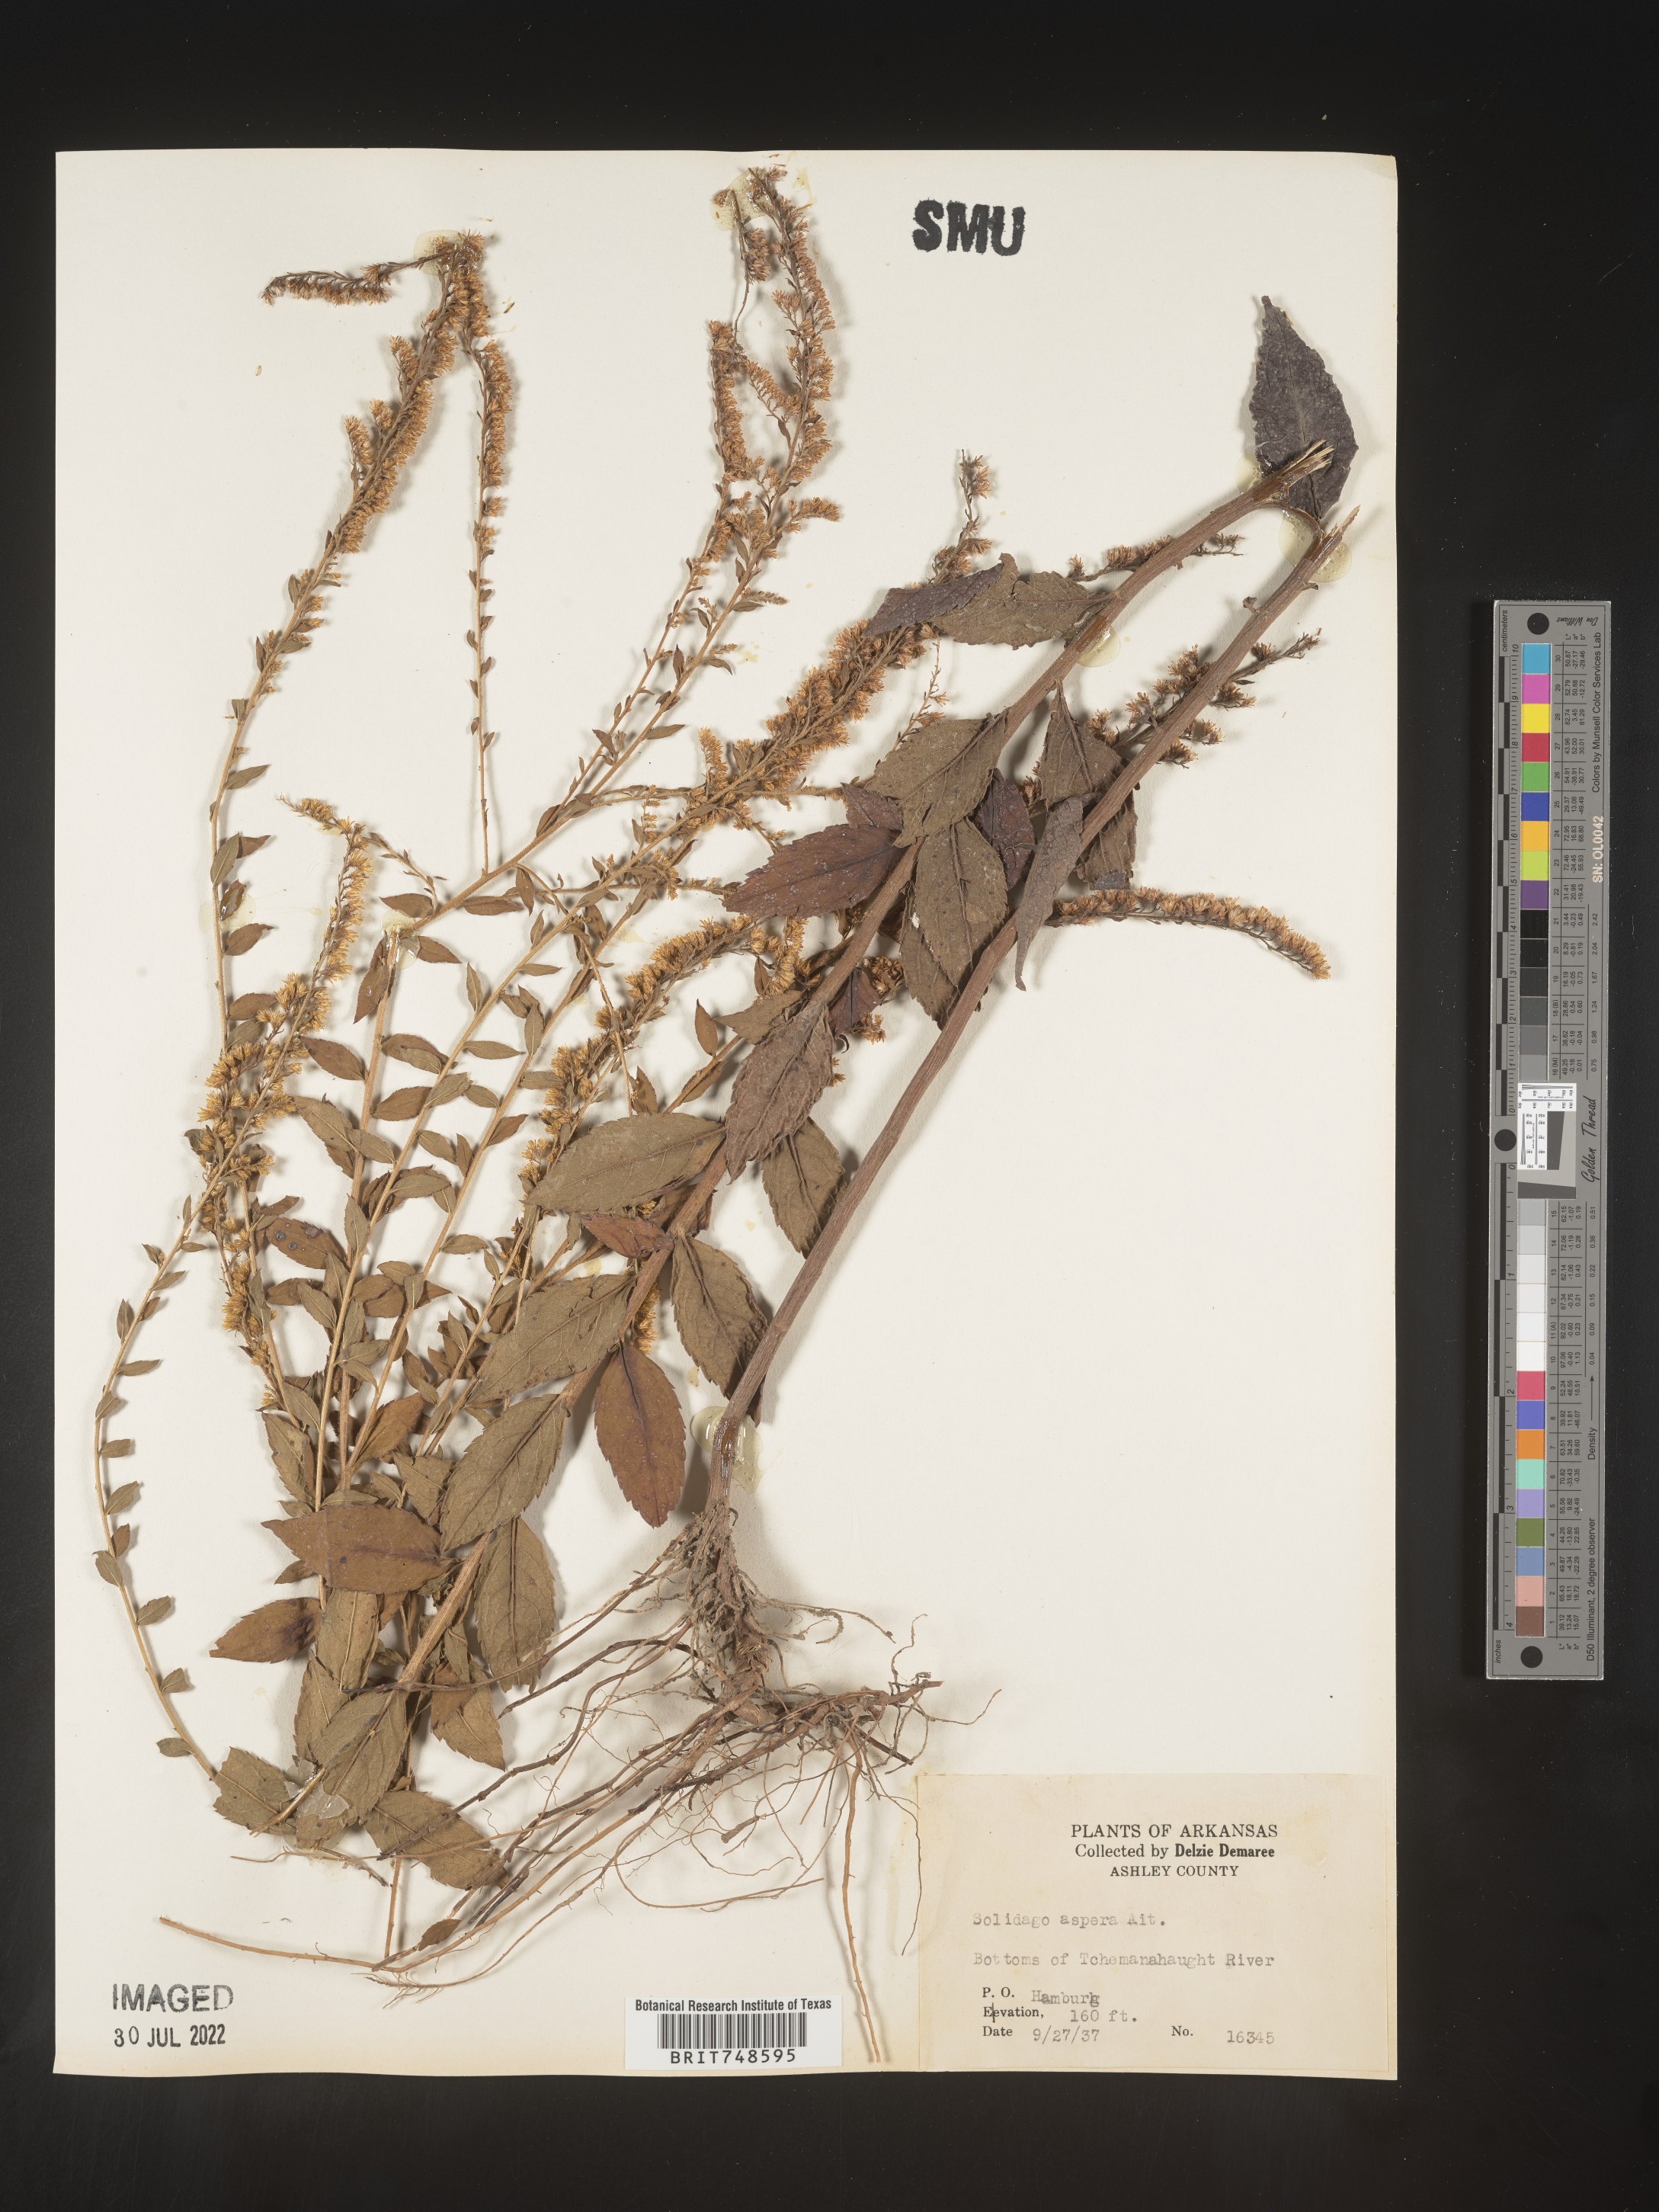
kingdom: Plantae
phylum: Tracheophyta
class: Magnoliopsida
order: Asterales
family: Asteraceae
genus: Solidago
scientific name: Solidago rugosa
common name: Rough-stemmed goldenrod
